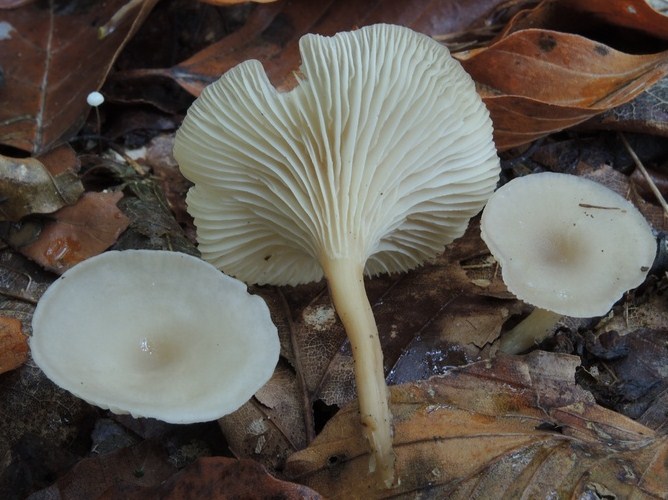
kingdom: Fungi
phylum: Basidiomycota
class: Agaricomycetes
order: Agaricales
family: Tricholomataceae
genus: Clitocybe
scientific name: Clitocybe phaeophthalma
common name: stinkende tragthat
